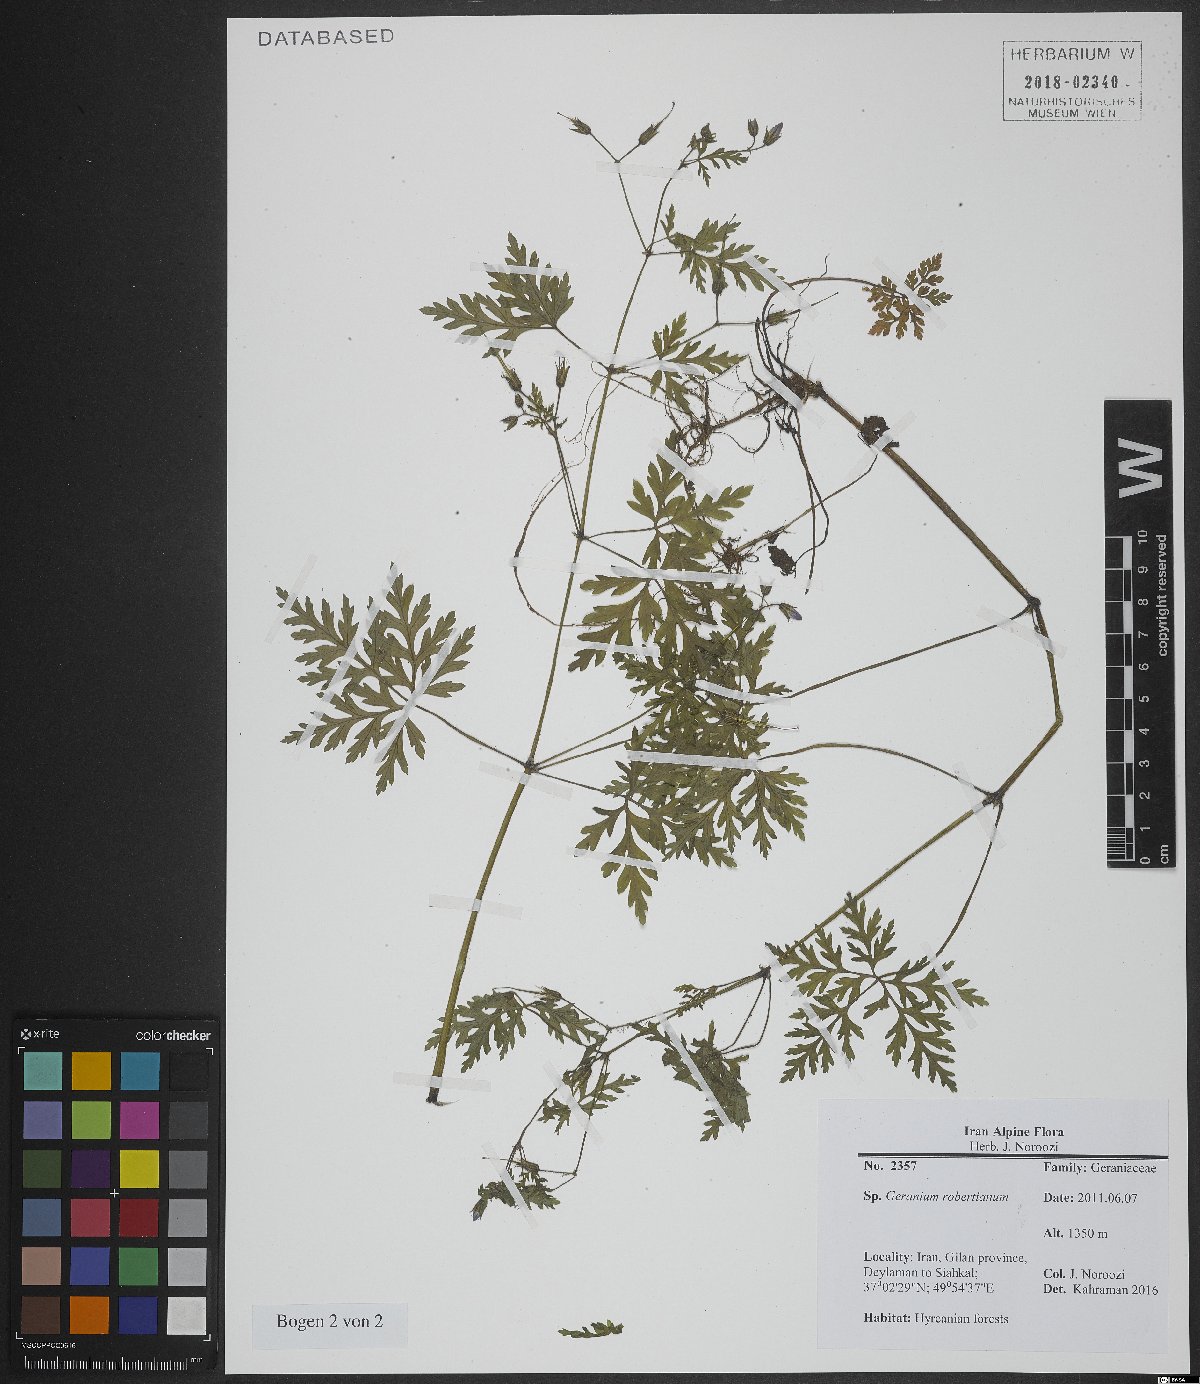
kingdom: Plantae
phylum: Tracheophyta
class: Magnoliopsida
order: Geraniales
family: Geraniaceae
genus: Geranium
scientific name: Geranium robertianum
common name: Herb-robert
